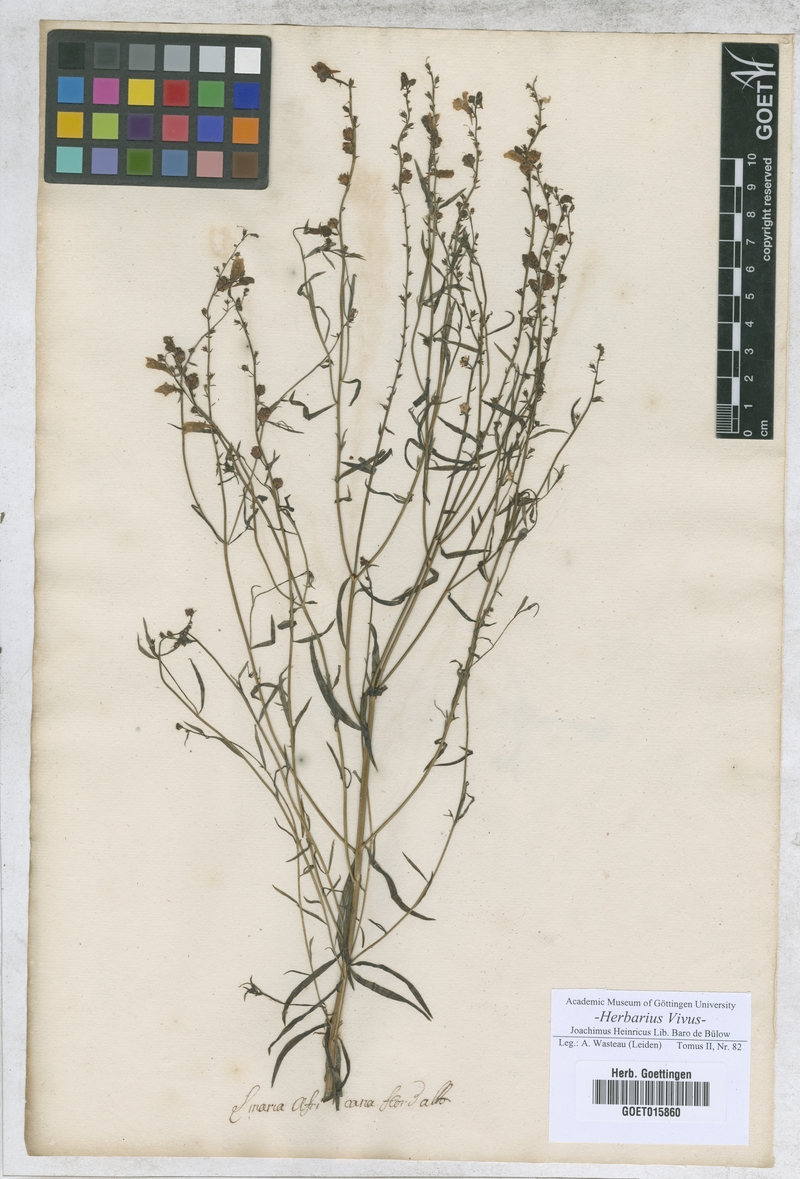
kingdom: Plantae
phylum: Tracheophyta
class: Magnoliopsida
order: Lamiales
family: Plantaginaceae
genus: Linaria
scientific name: Linaria
